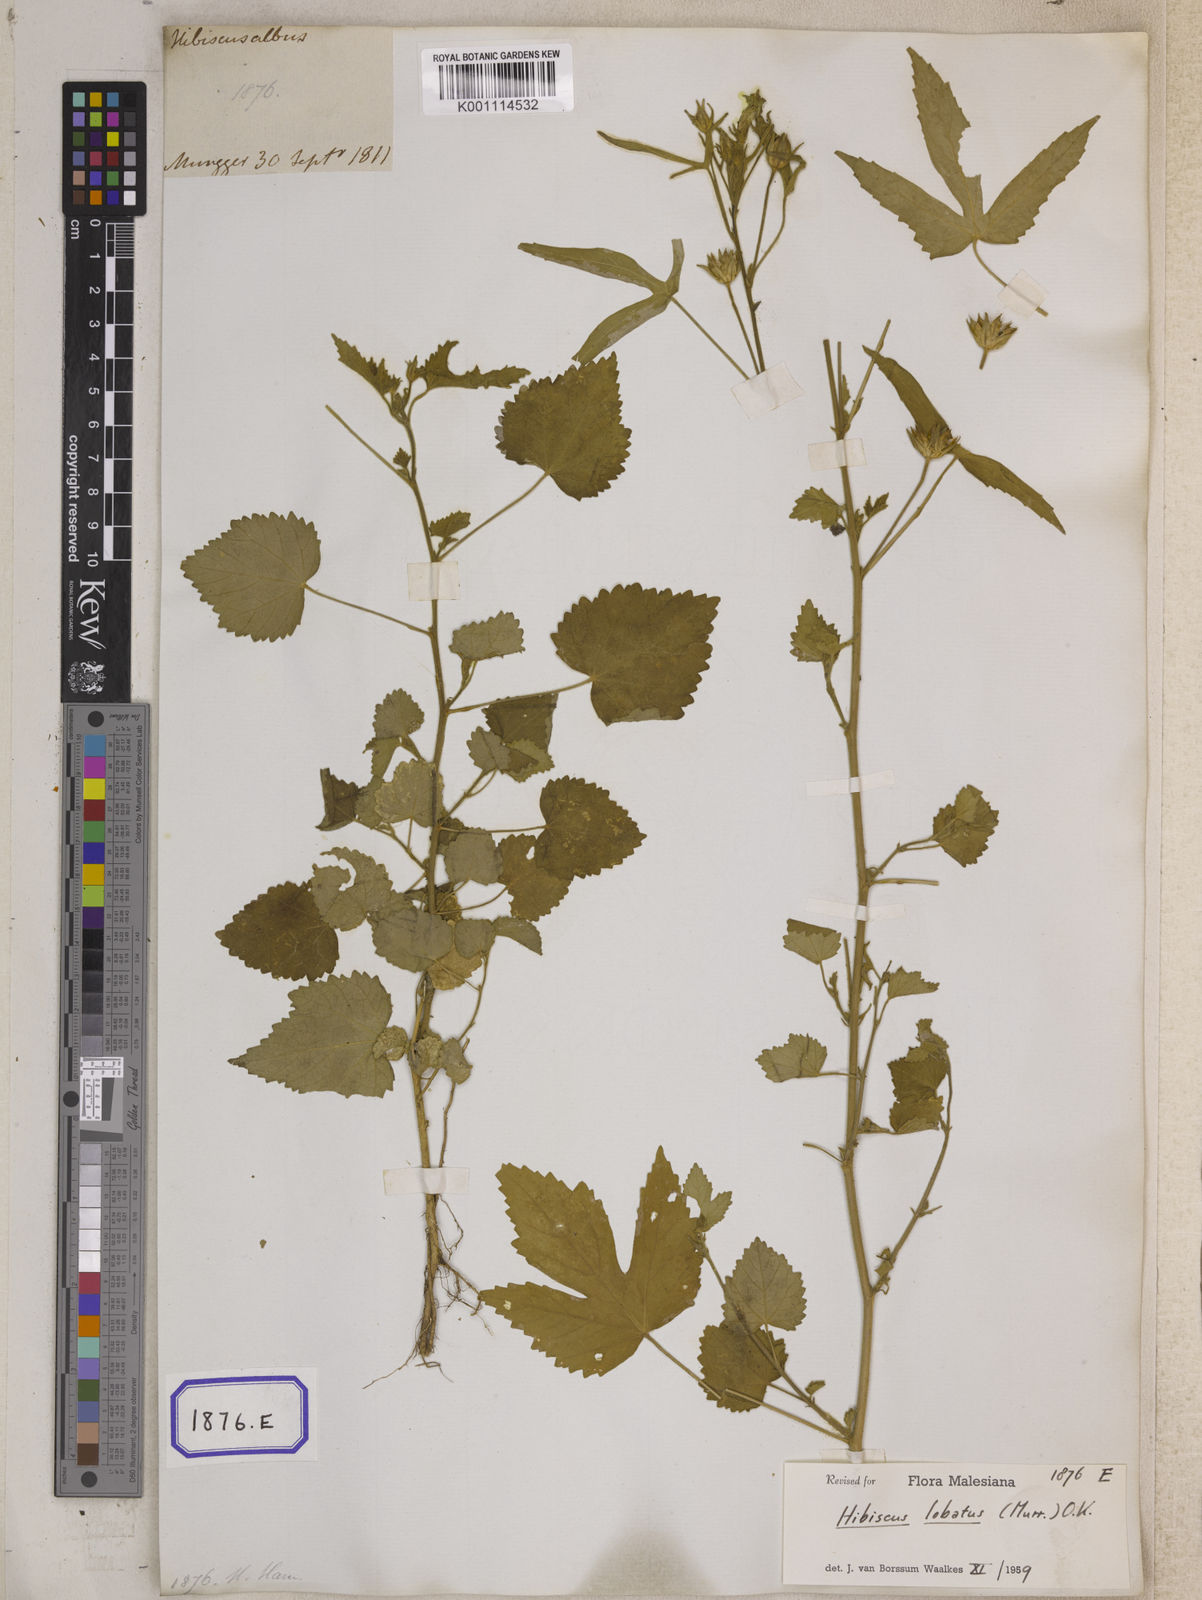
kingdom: Plantae
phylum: Tracheophyta
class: Magnoliopsida
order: Malvales
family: Malvaceae
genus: Hibiscus
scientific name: Hibiscus lobatus
